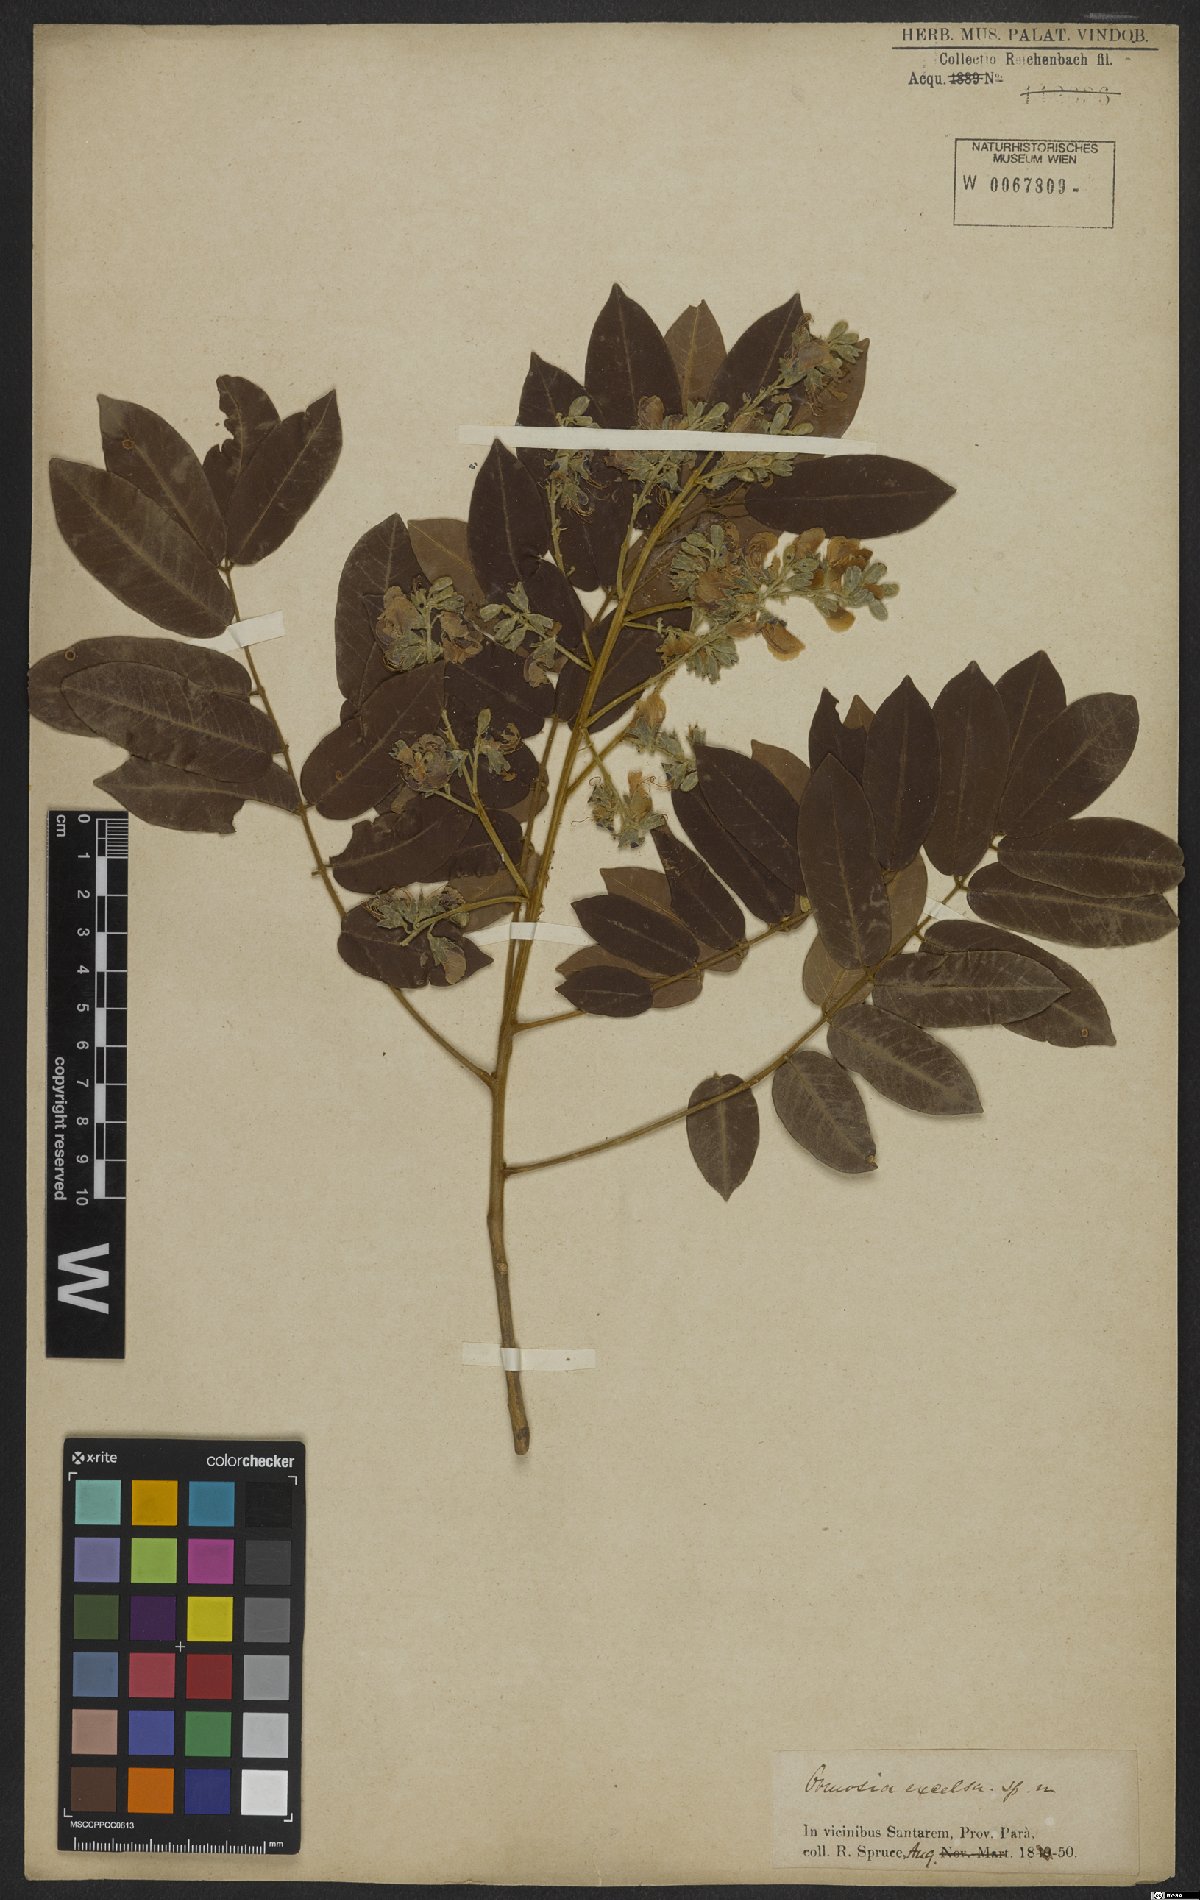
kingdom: Plantae
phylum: Tracheophyta
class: Magnoliopsida
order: Fabales
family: Fabaceae
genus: Ormosia
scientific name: Ormosia excelsa
